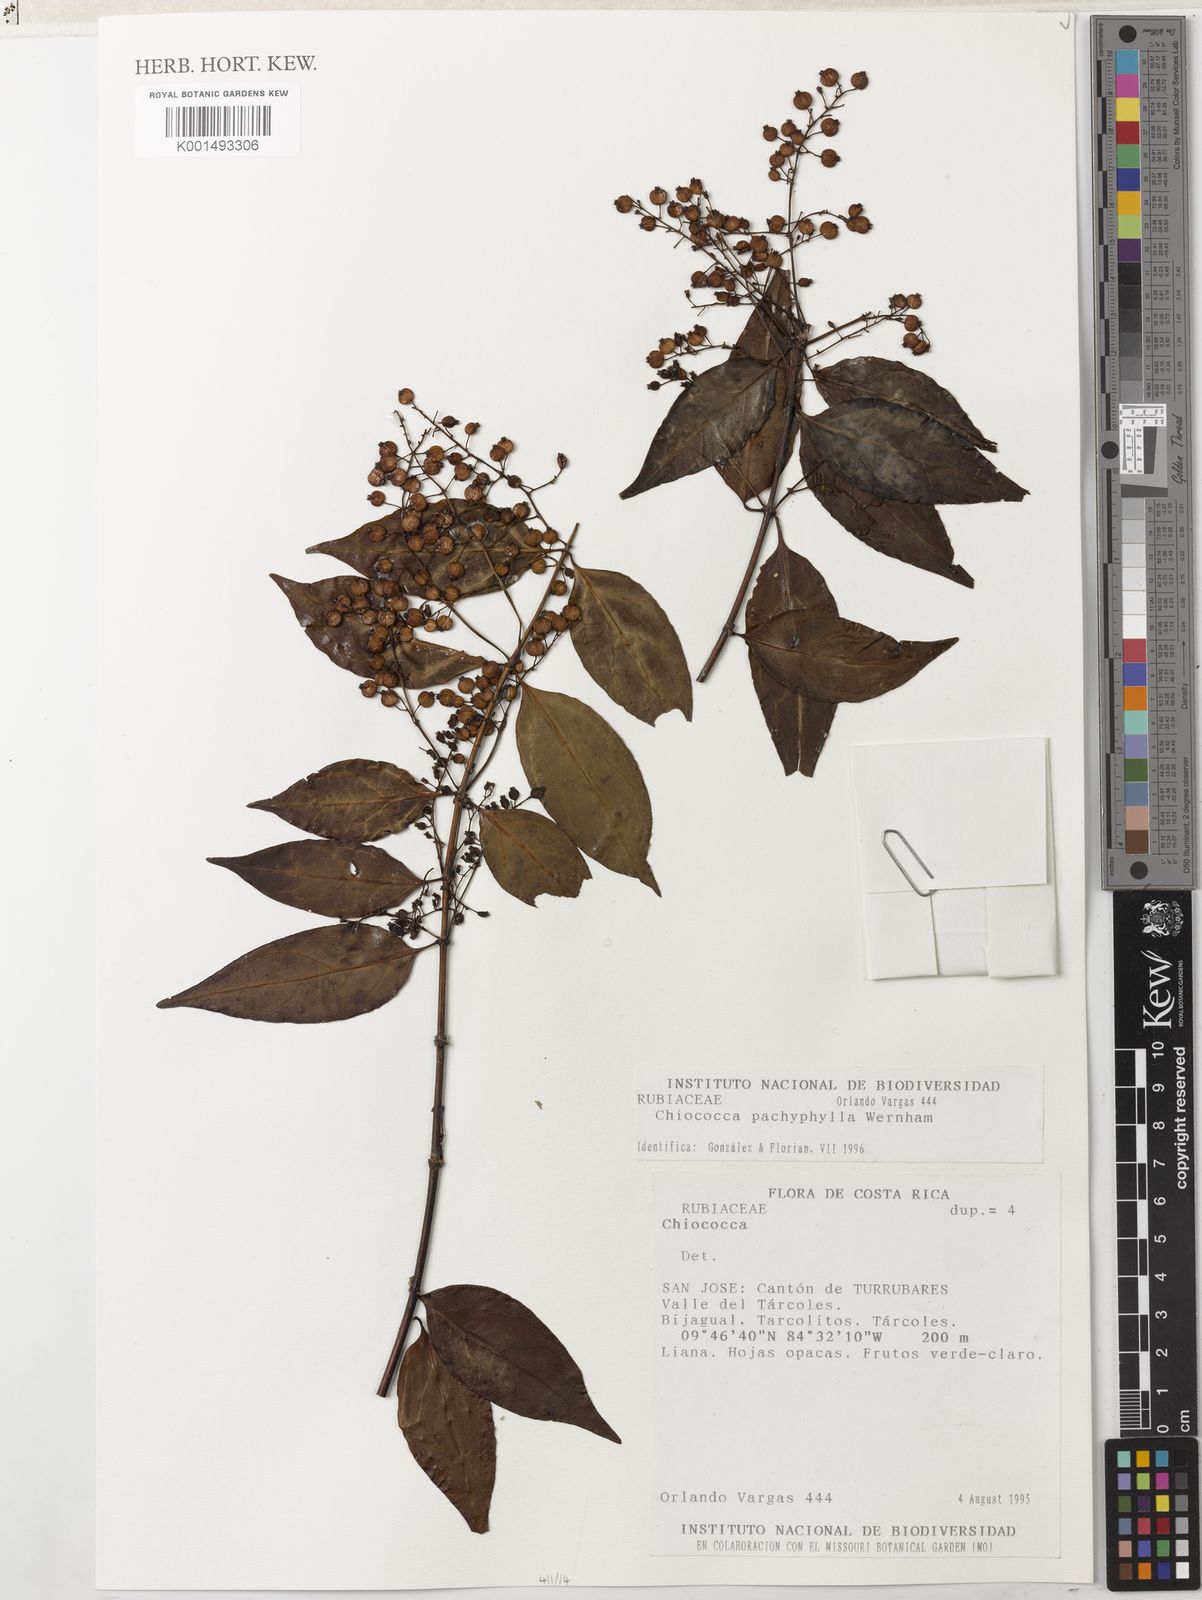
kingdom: Plantae
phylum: Tracheophyta
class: Magnoliopsida
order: Gentianales
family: Rubiaceae
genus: Chiococca
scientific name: Chiococca pachyphylla
